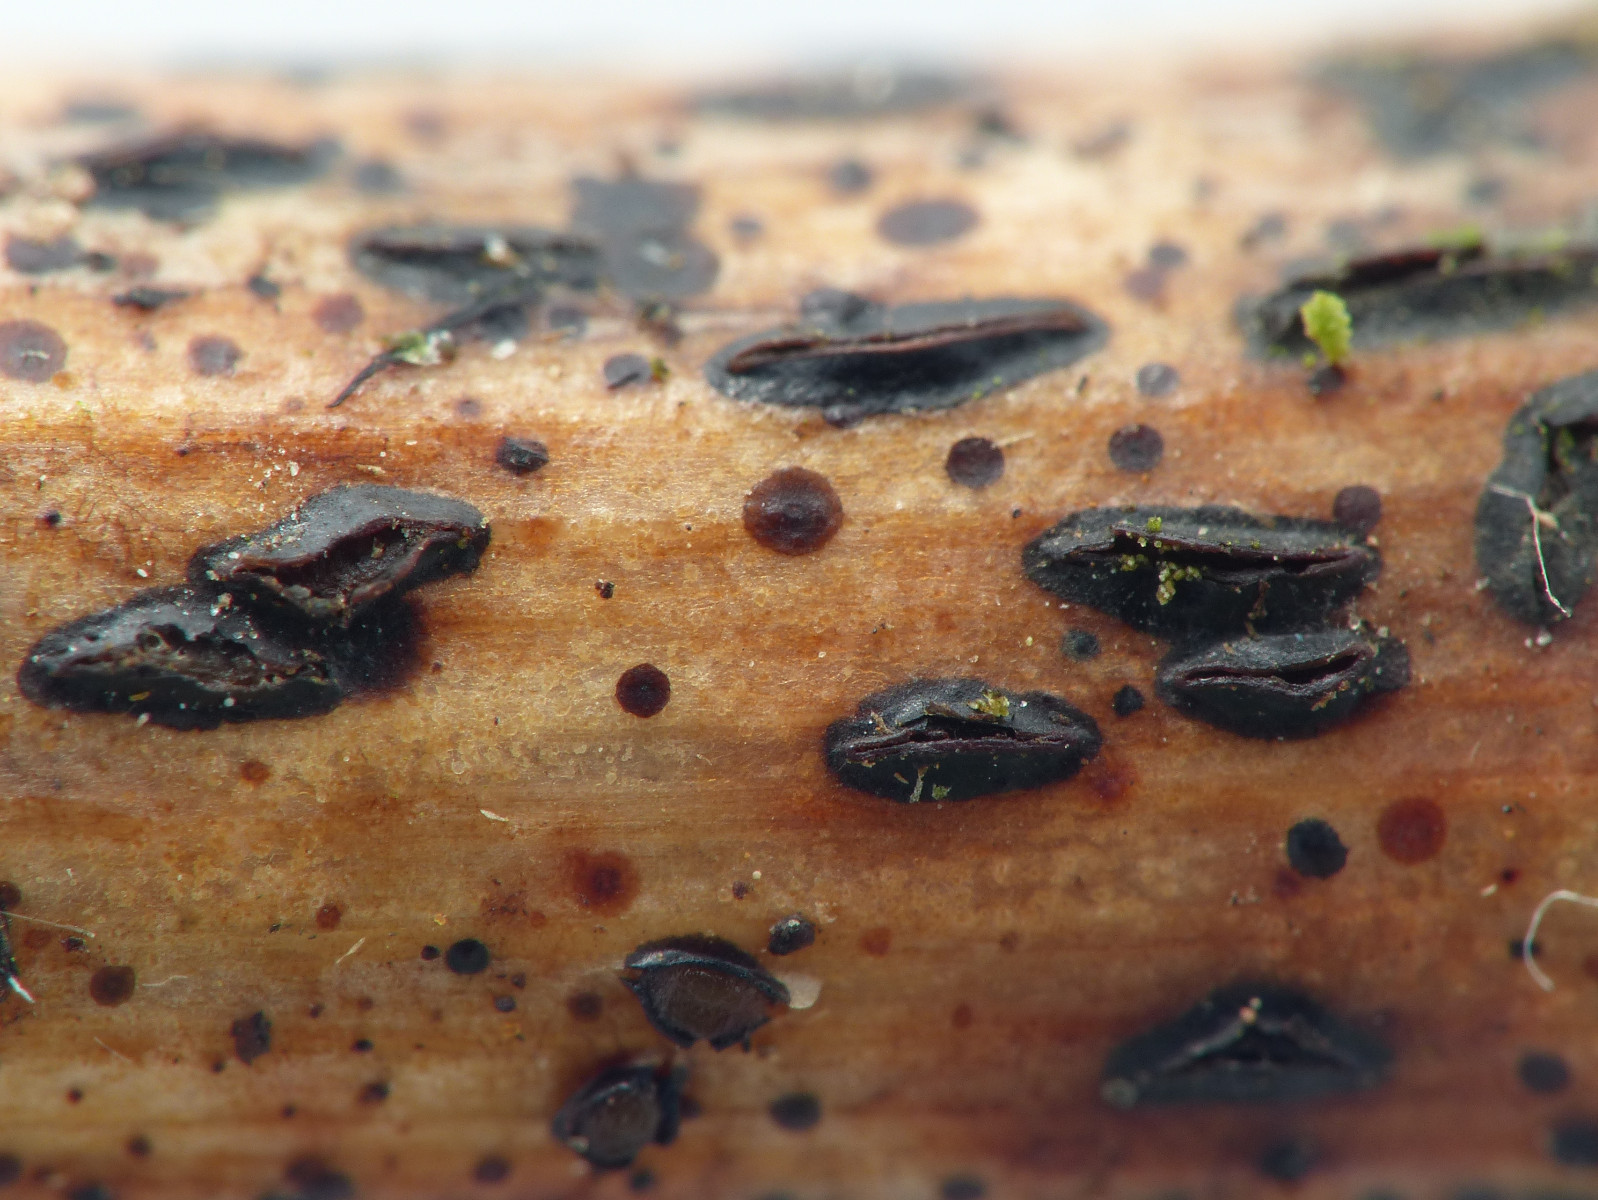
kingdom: Fungi
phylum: Ascomycota
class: Leotiomycetes
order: Rhytismatales
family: Rhytismataceae
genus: Hypoderma
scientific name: Hypoderma commune
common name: urte-fureplet
